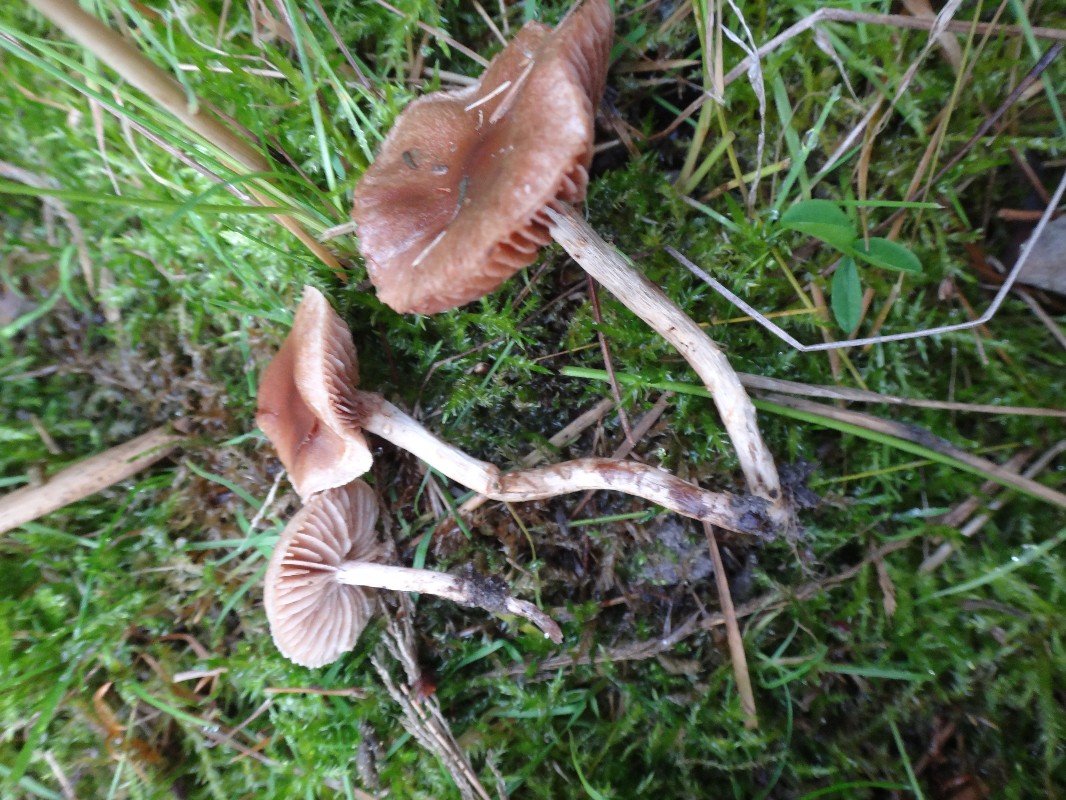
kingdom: Fungi
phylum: Basidiomycota
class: Agaricomycetes
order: Agaricales
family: Hymenogastraceae
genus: Hebeloma
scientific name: Hebeloma velatum
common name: knippe-tåreblad
